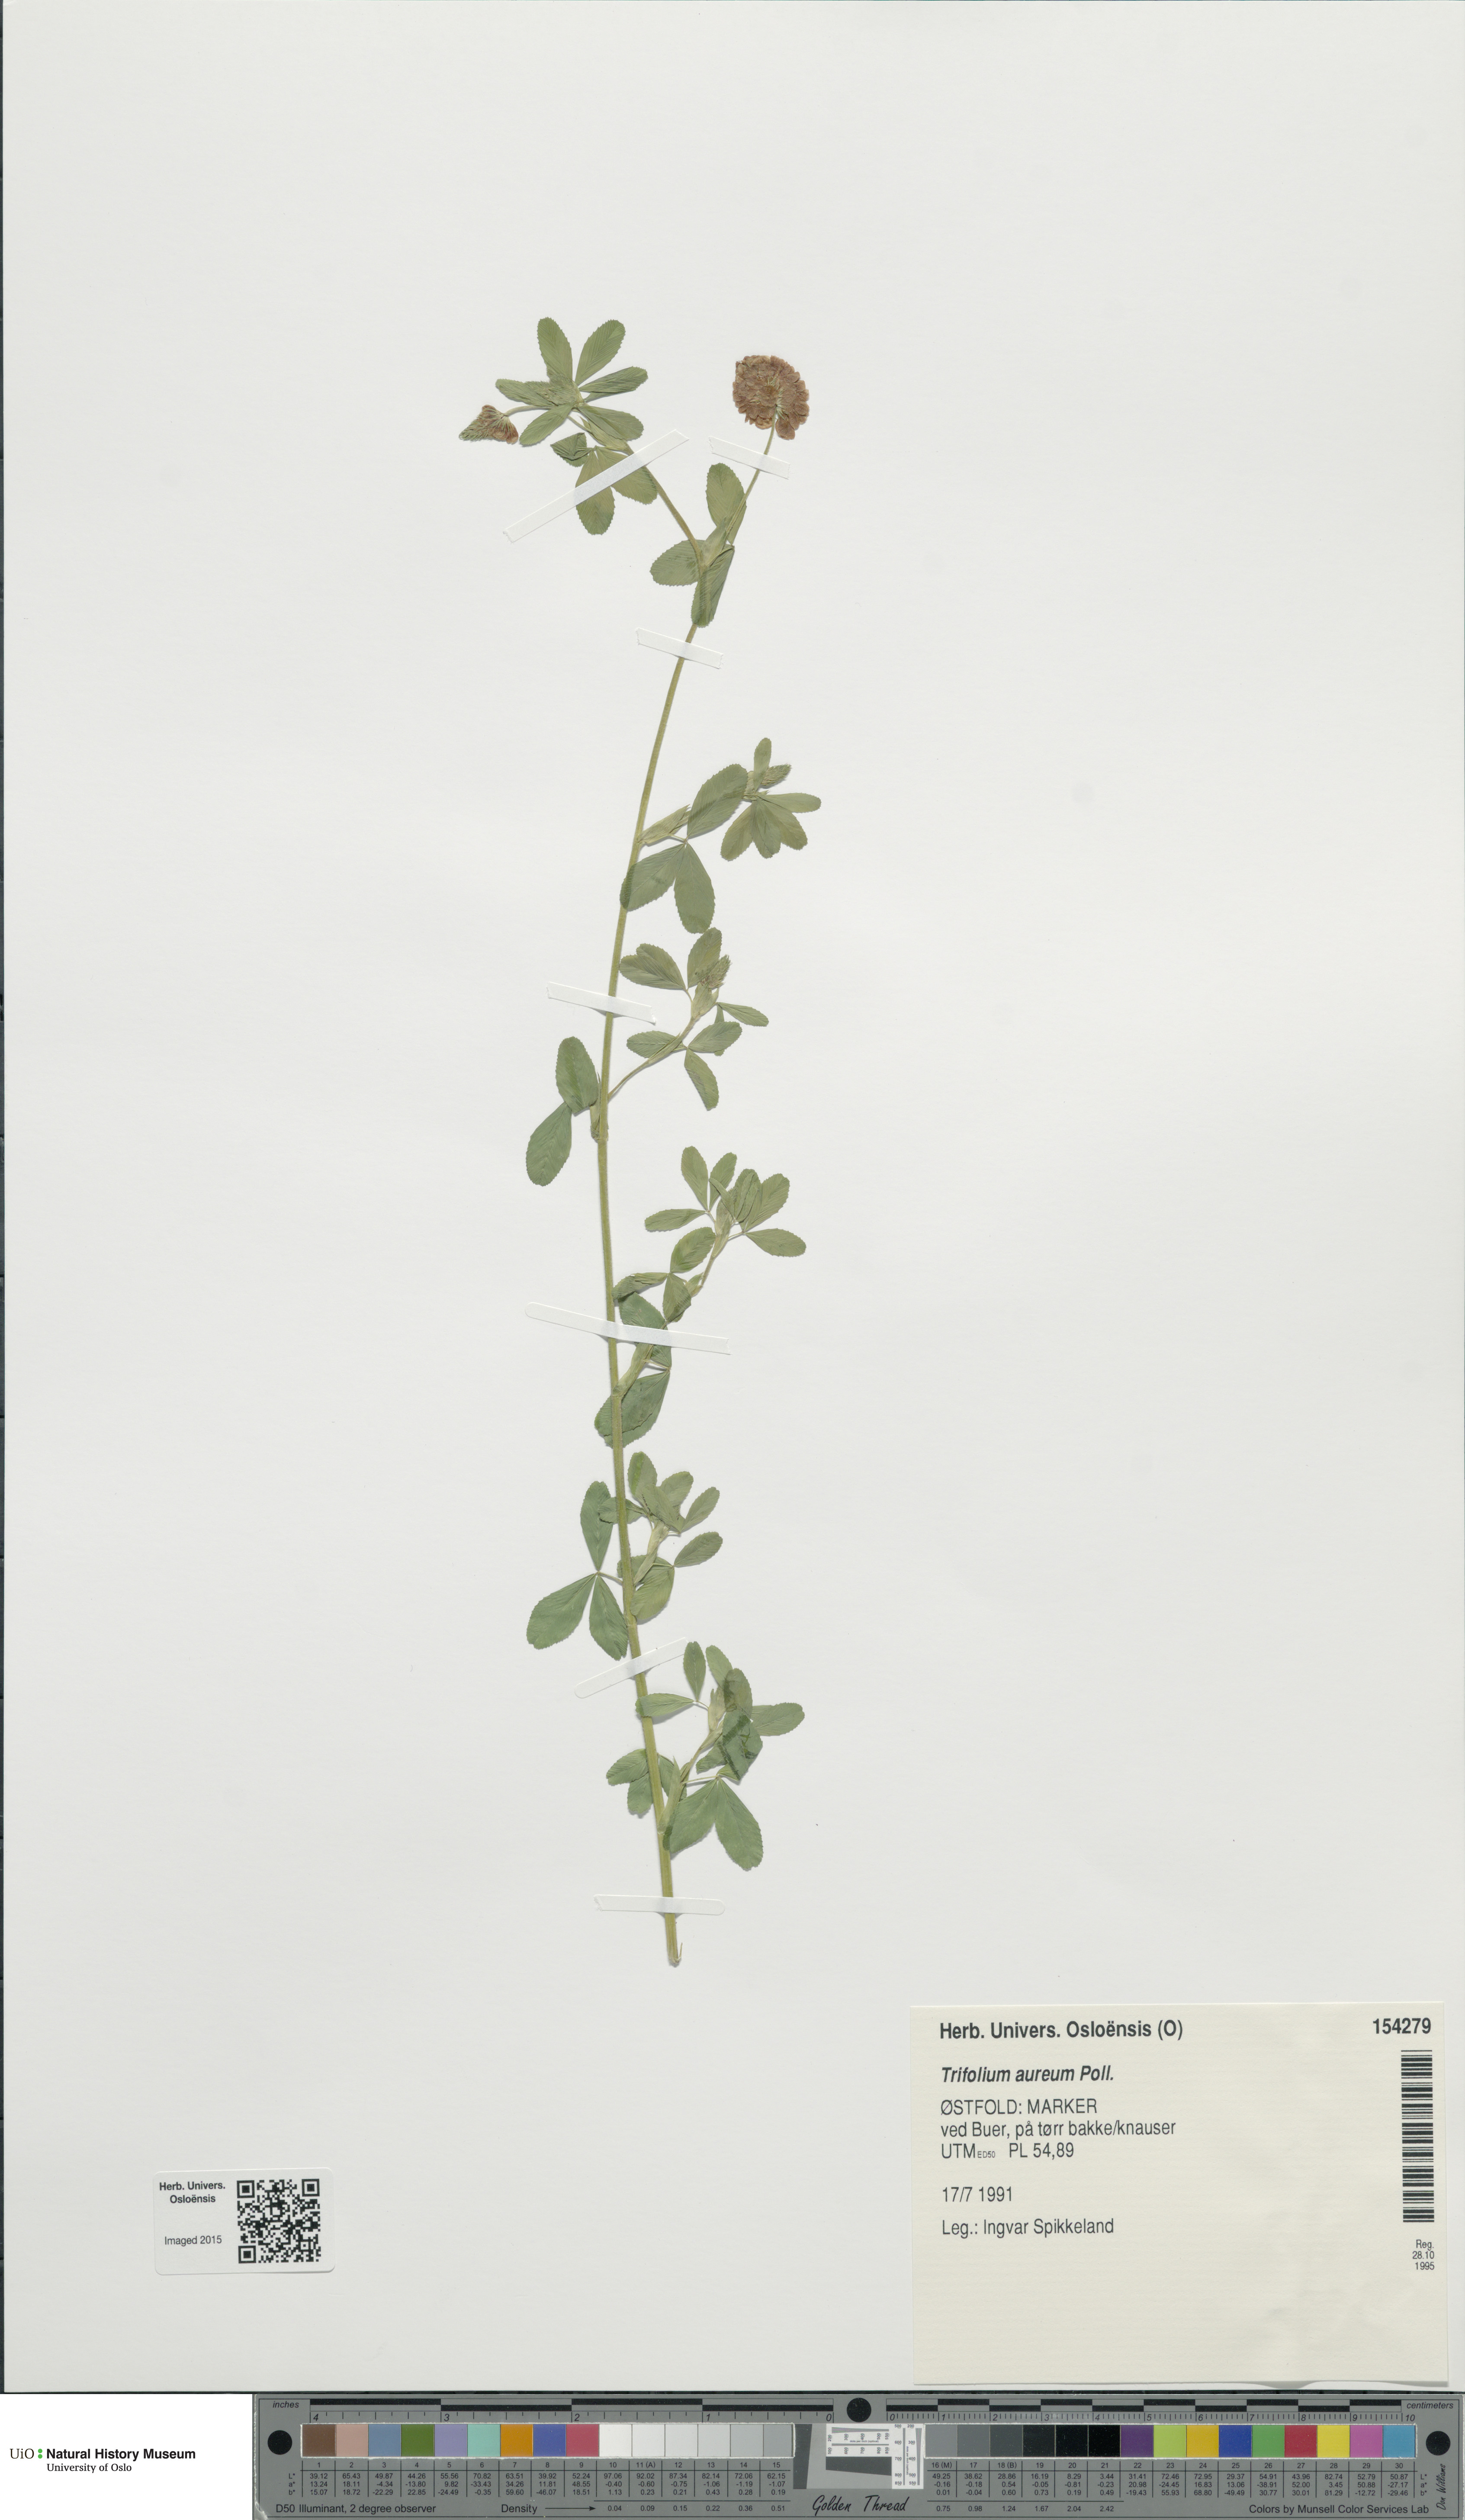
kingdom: Plantae
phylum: Tracheophyta
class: Magnoliopsida
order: Fabales
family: Fabaceae
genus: Trifolium
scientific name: Trifolium aureum
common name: Golden clover
